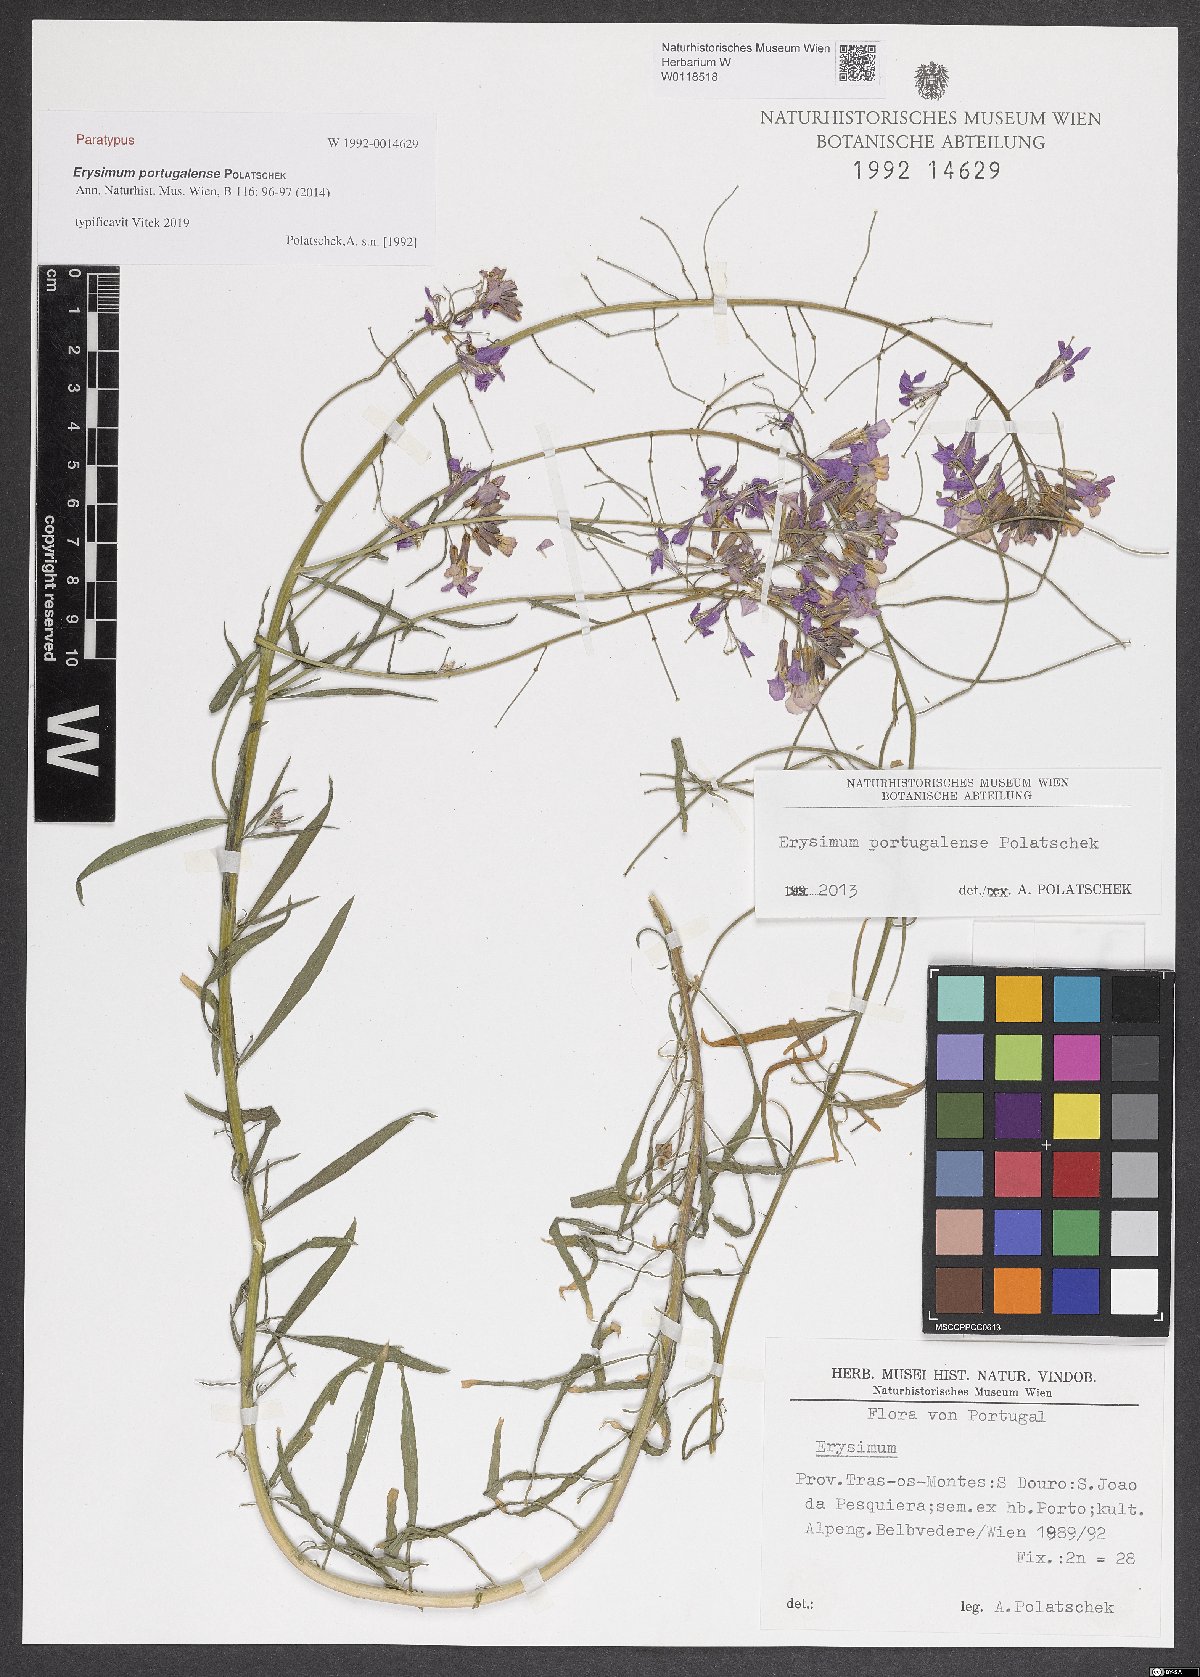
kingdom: Plantae
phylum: Tracheophyta
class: Magnoliopsida
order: Brassicales
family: Brassicaceae
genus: Erysimum
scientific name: Erysimum portugalense
